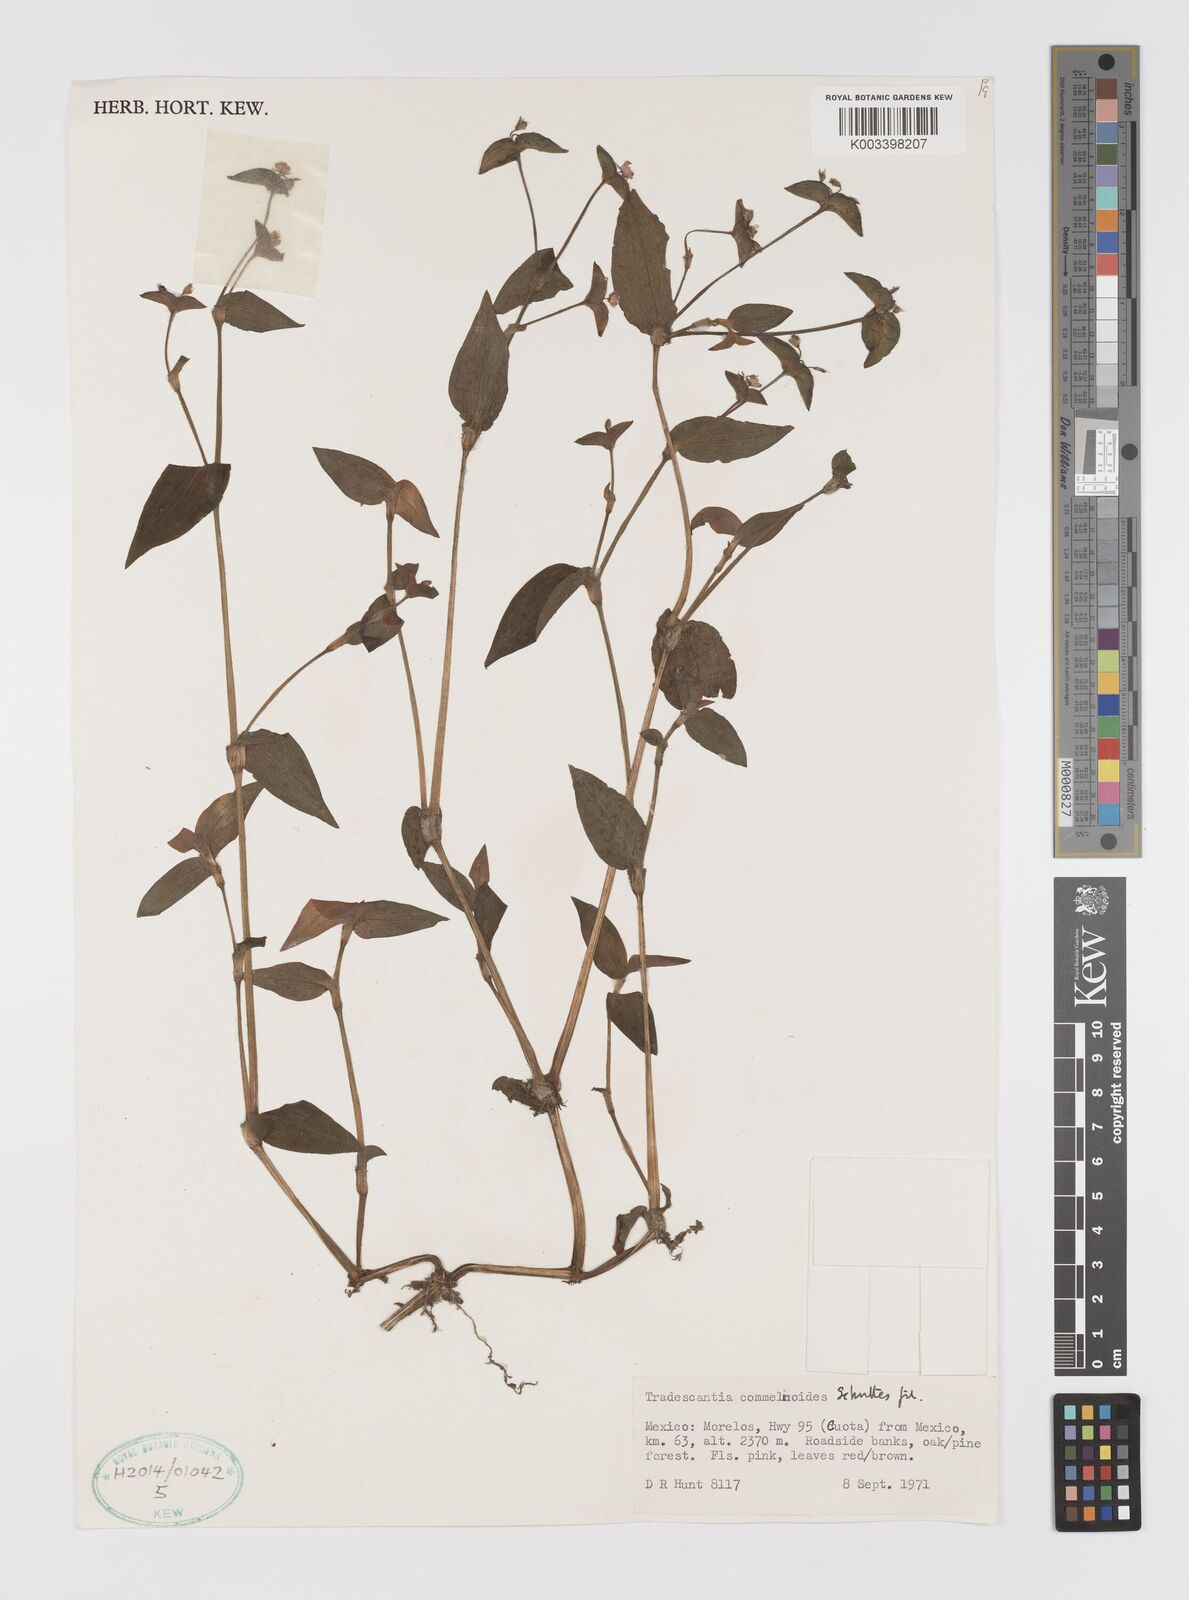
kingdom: Plantae
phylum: Tracheophyta
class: Liliopsida
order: Commelinales
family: Commelinaceae
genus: Tradescantia
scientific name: Tradescantia commelinoides
